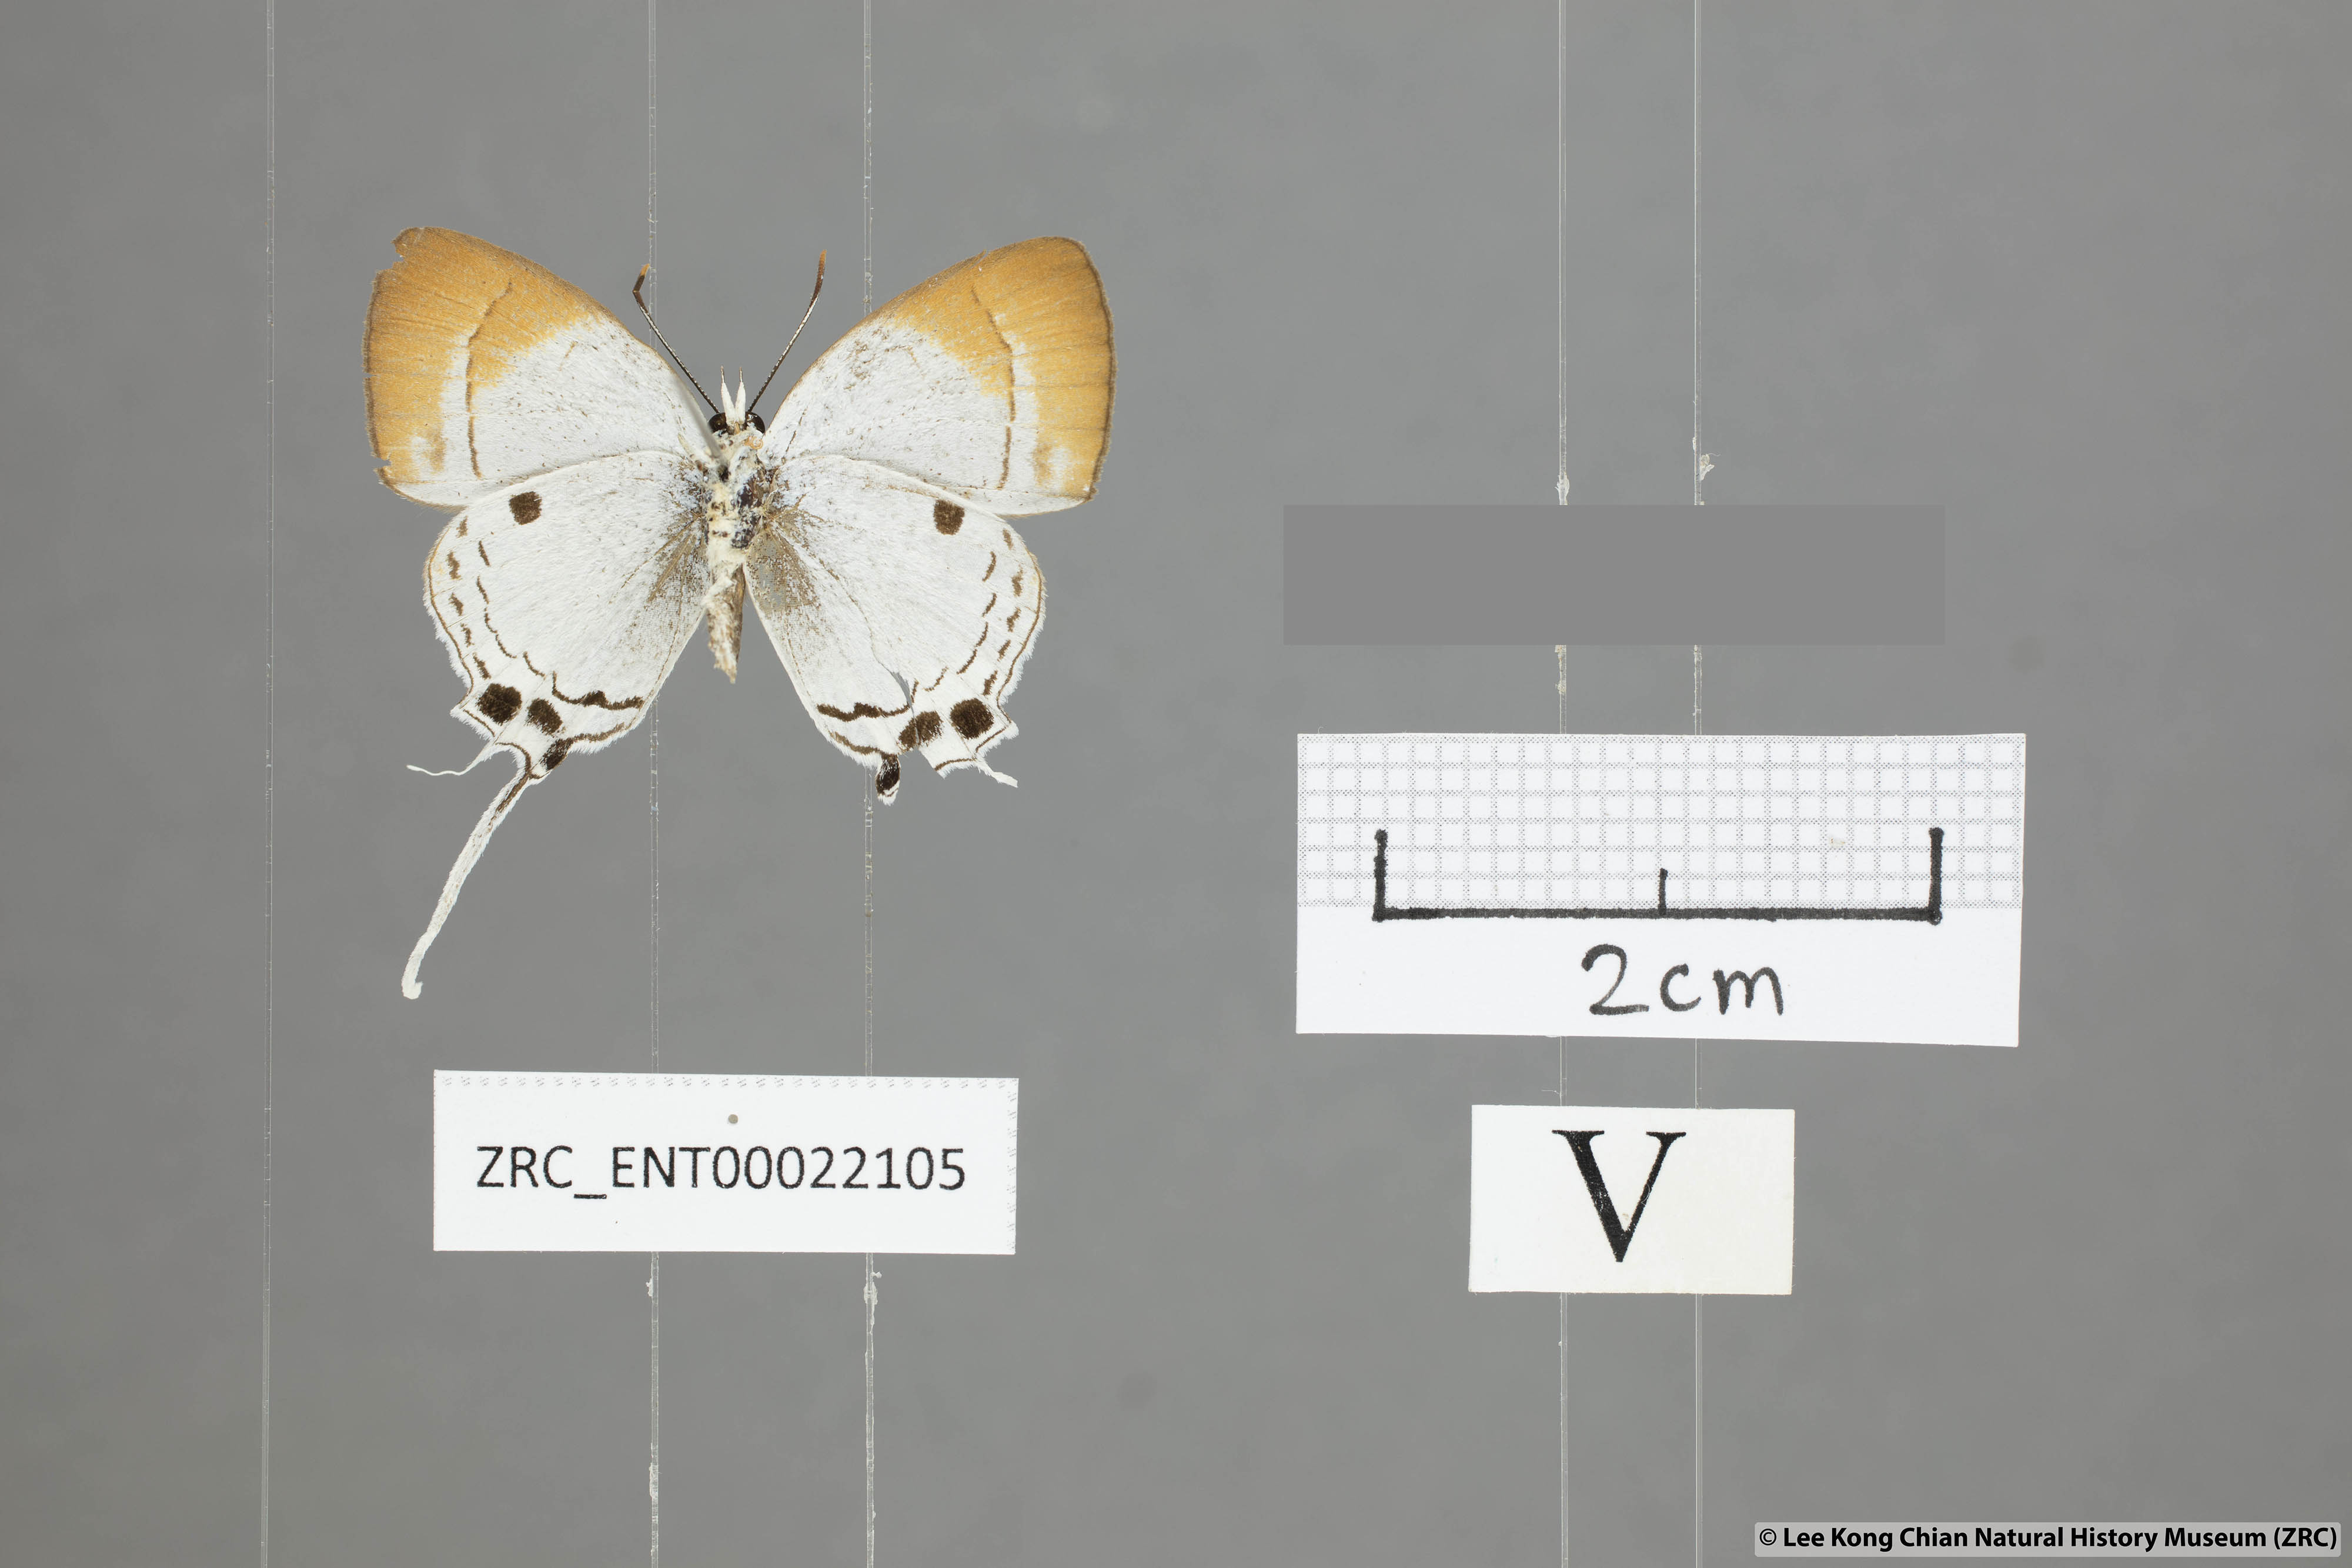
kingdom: Animalia
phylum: Arthropoda
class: Insecta
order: Lepidoptera
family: Lycaenidae
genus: Suasa
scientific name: Suasa lisides
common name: Red imperial
